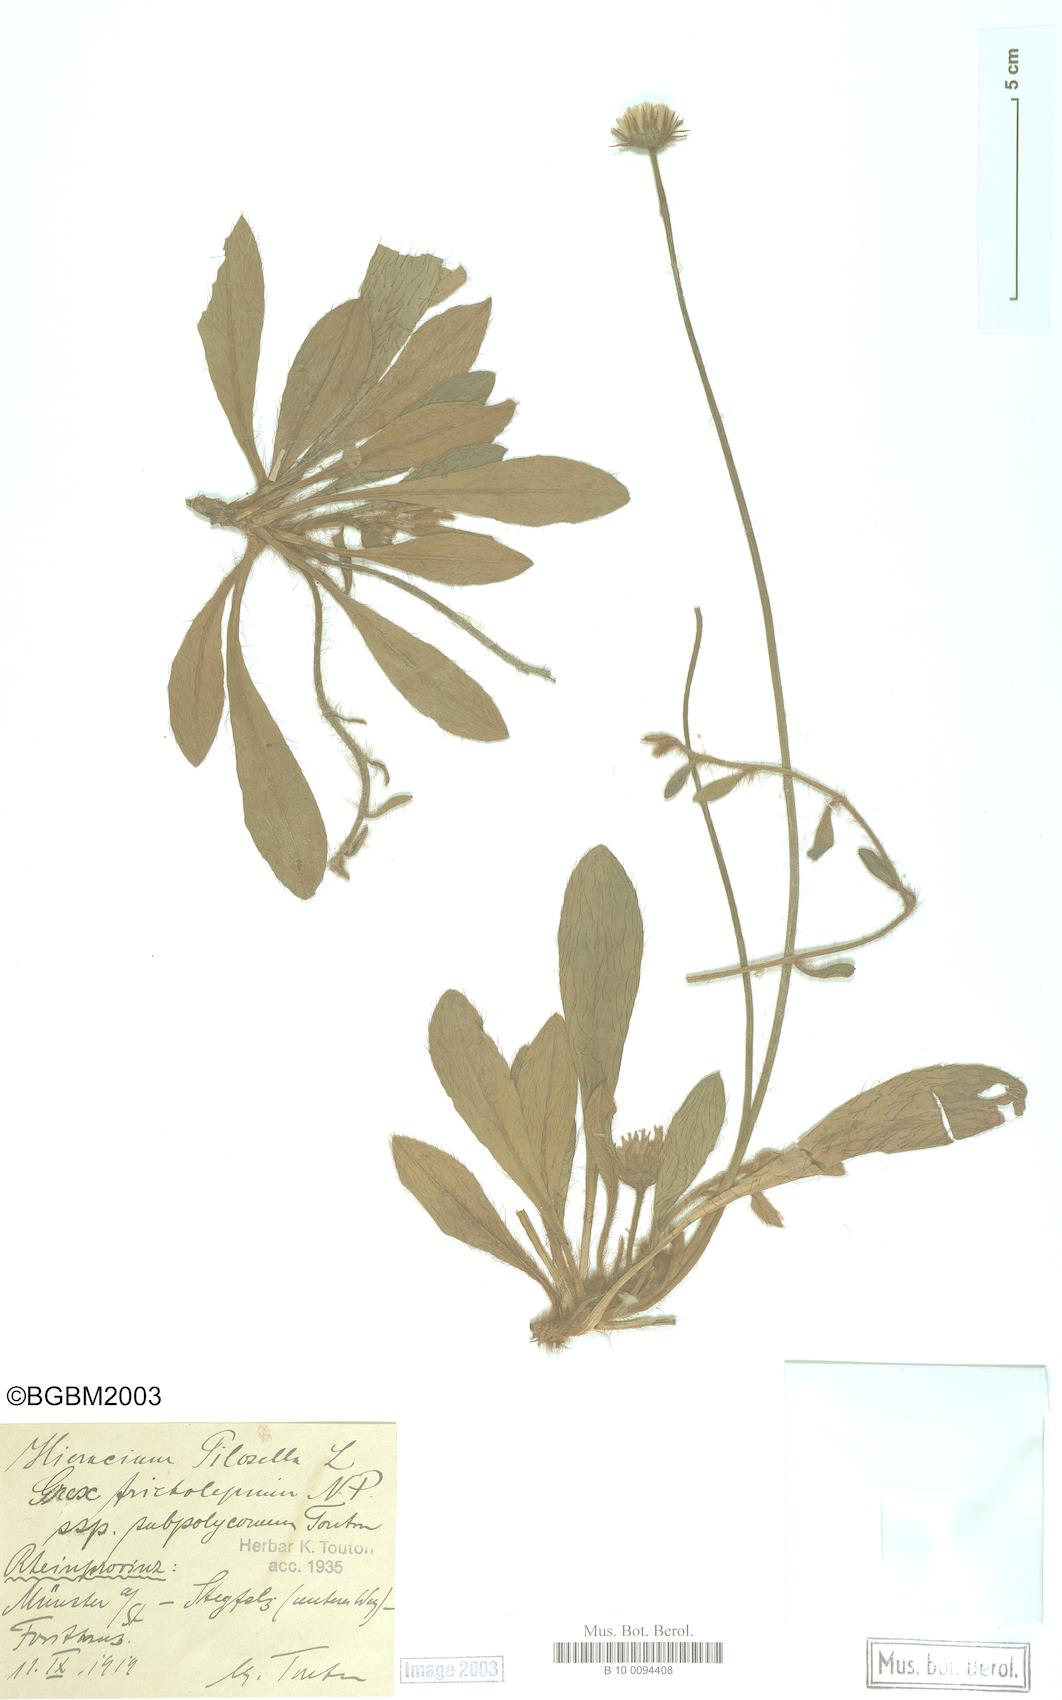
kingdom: Plantae
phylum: Tracheophyta
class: Magnoliopsida
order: Asterales
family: Asteraceae
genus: Pilosella
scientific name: Pilosella officinarum
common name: Mouse-ear hawkweed
